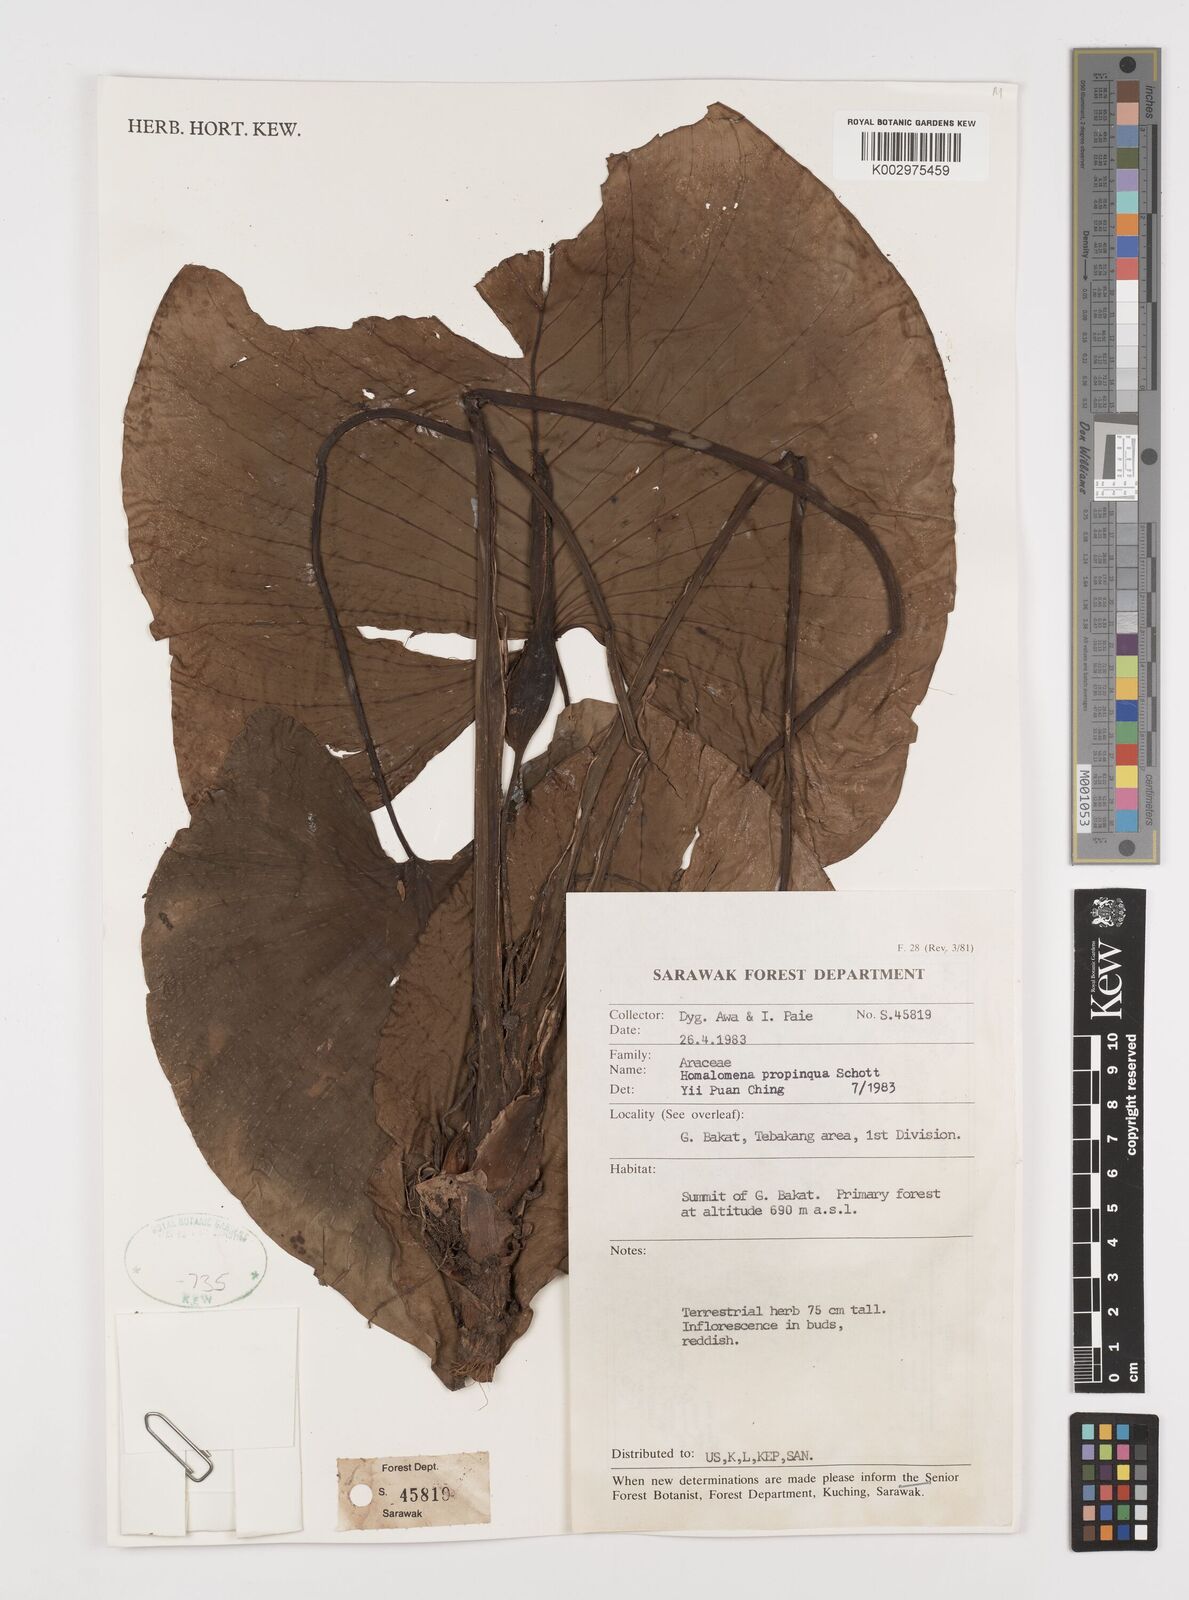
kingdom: Plantae
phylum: Tracheophyta
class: Liliopsida
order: Alismatales
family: Araceae
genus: Homalomena
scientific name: Homalomena humilis
